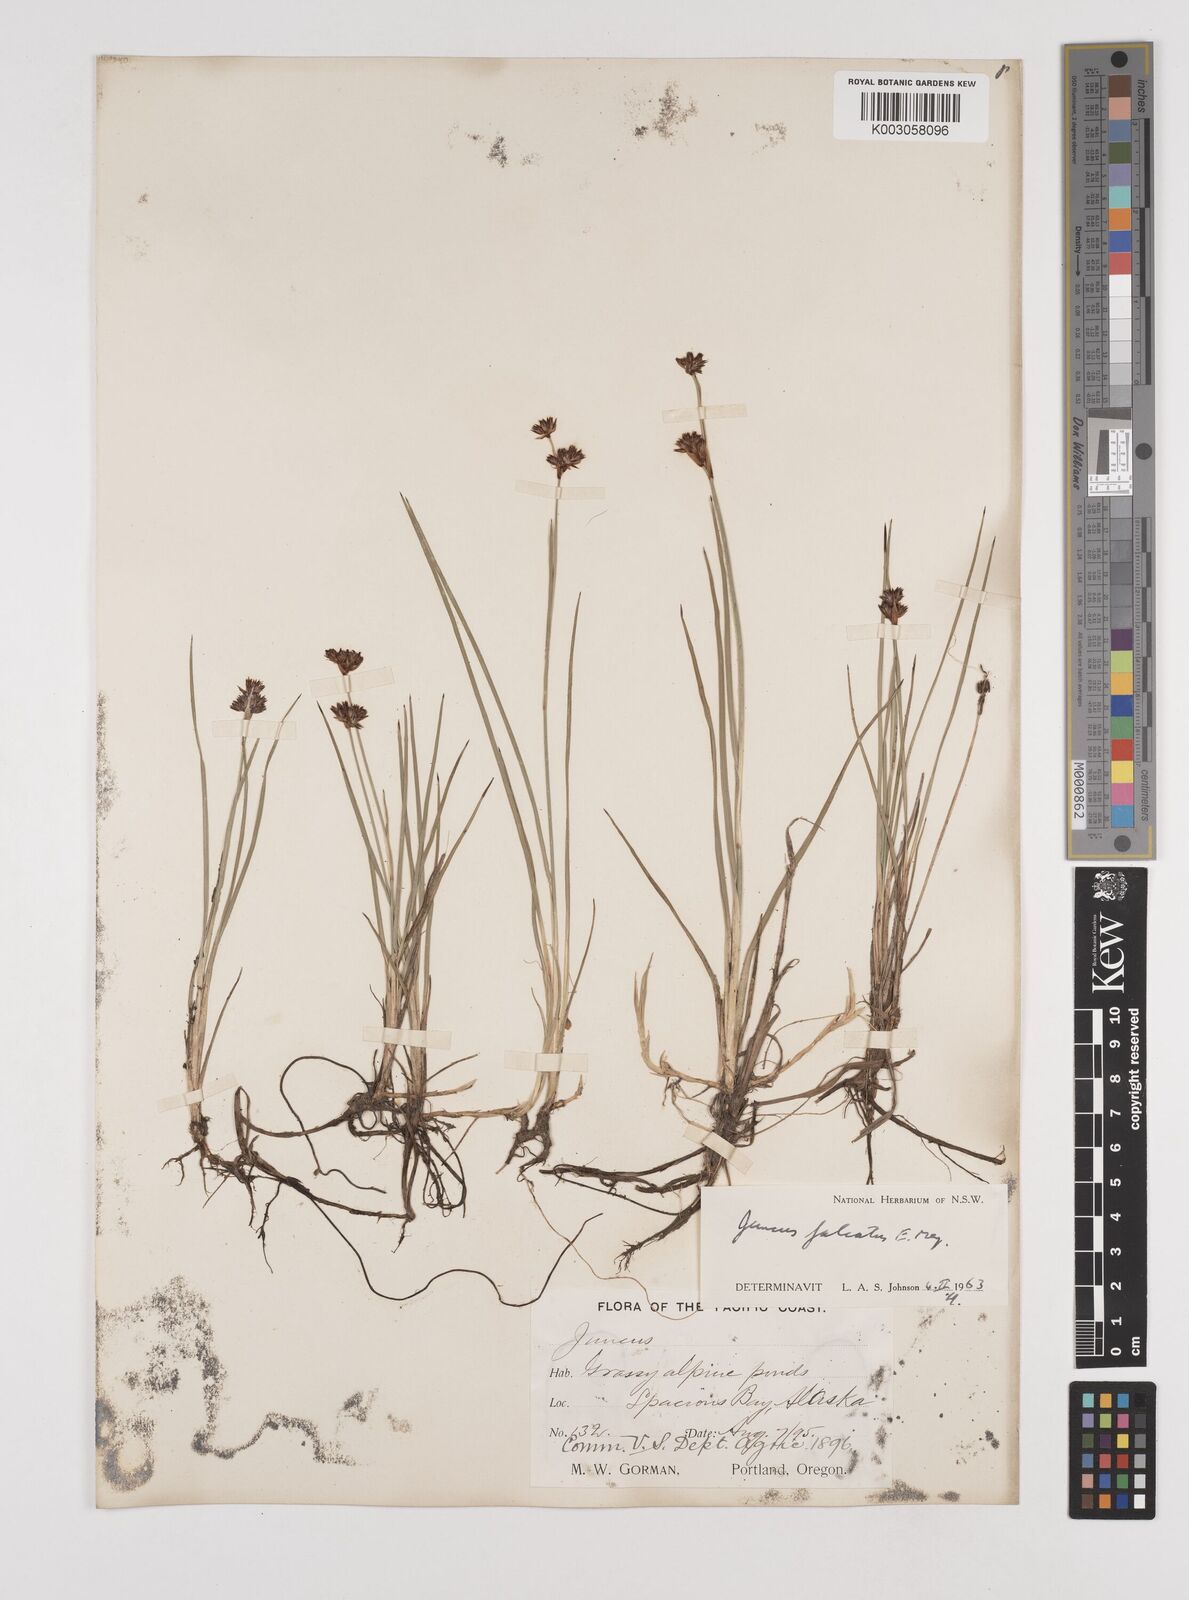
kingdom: Plantae
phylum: Tracheophyta
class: Liliopsida
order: Poales
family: Juncaceae
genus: Juncus
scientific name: Juncus falcatus
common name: Sickle-leaf rush
